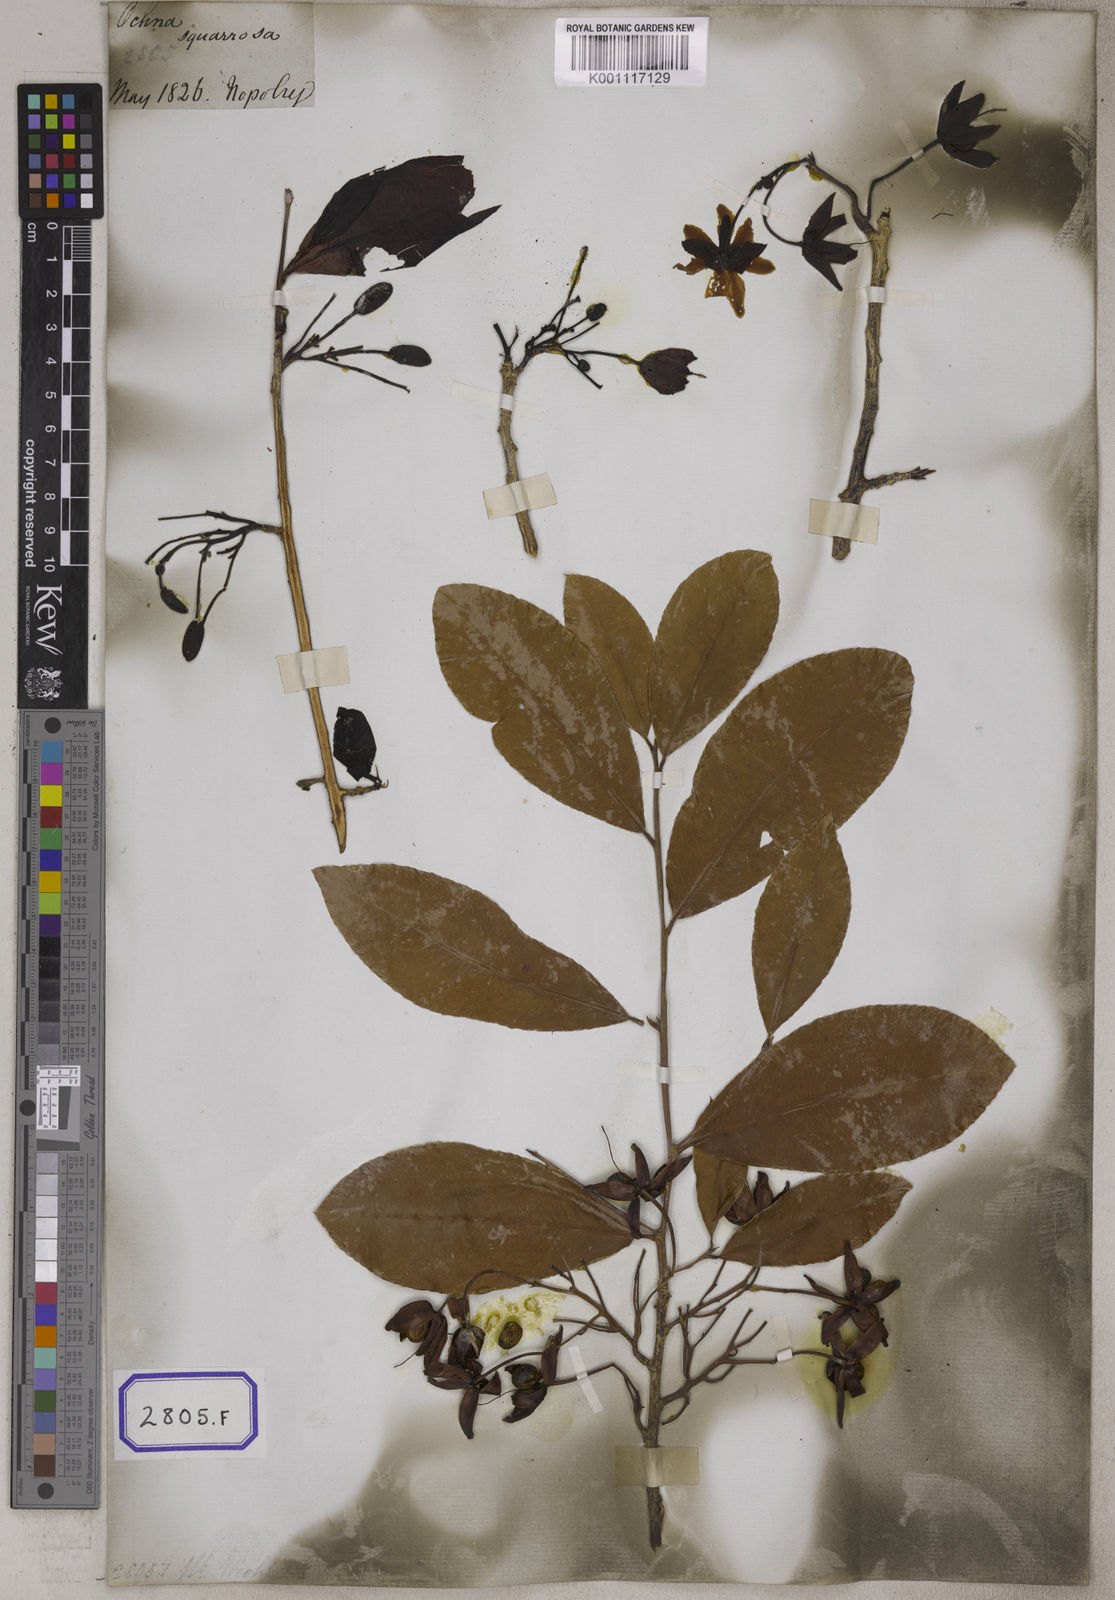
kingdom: Plantae
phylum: Tracheophyta
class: Magnoliopsida
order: Malpighiales
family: Ochnaceae
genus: Ochna
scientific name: Ochna obtusata
